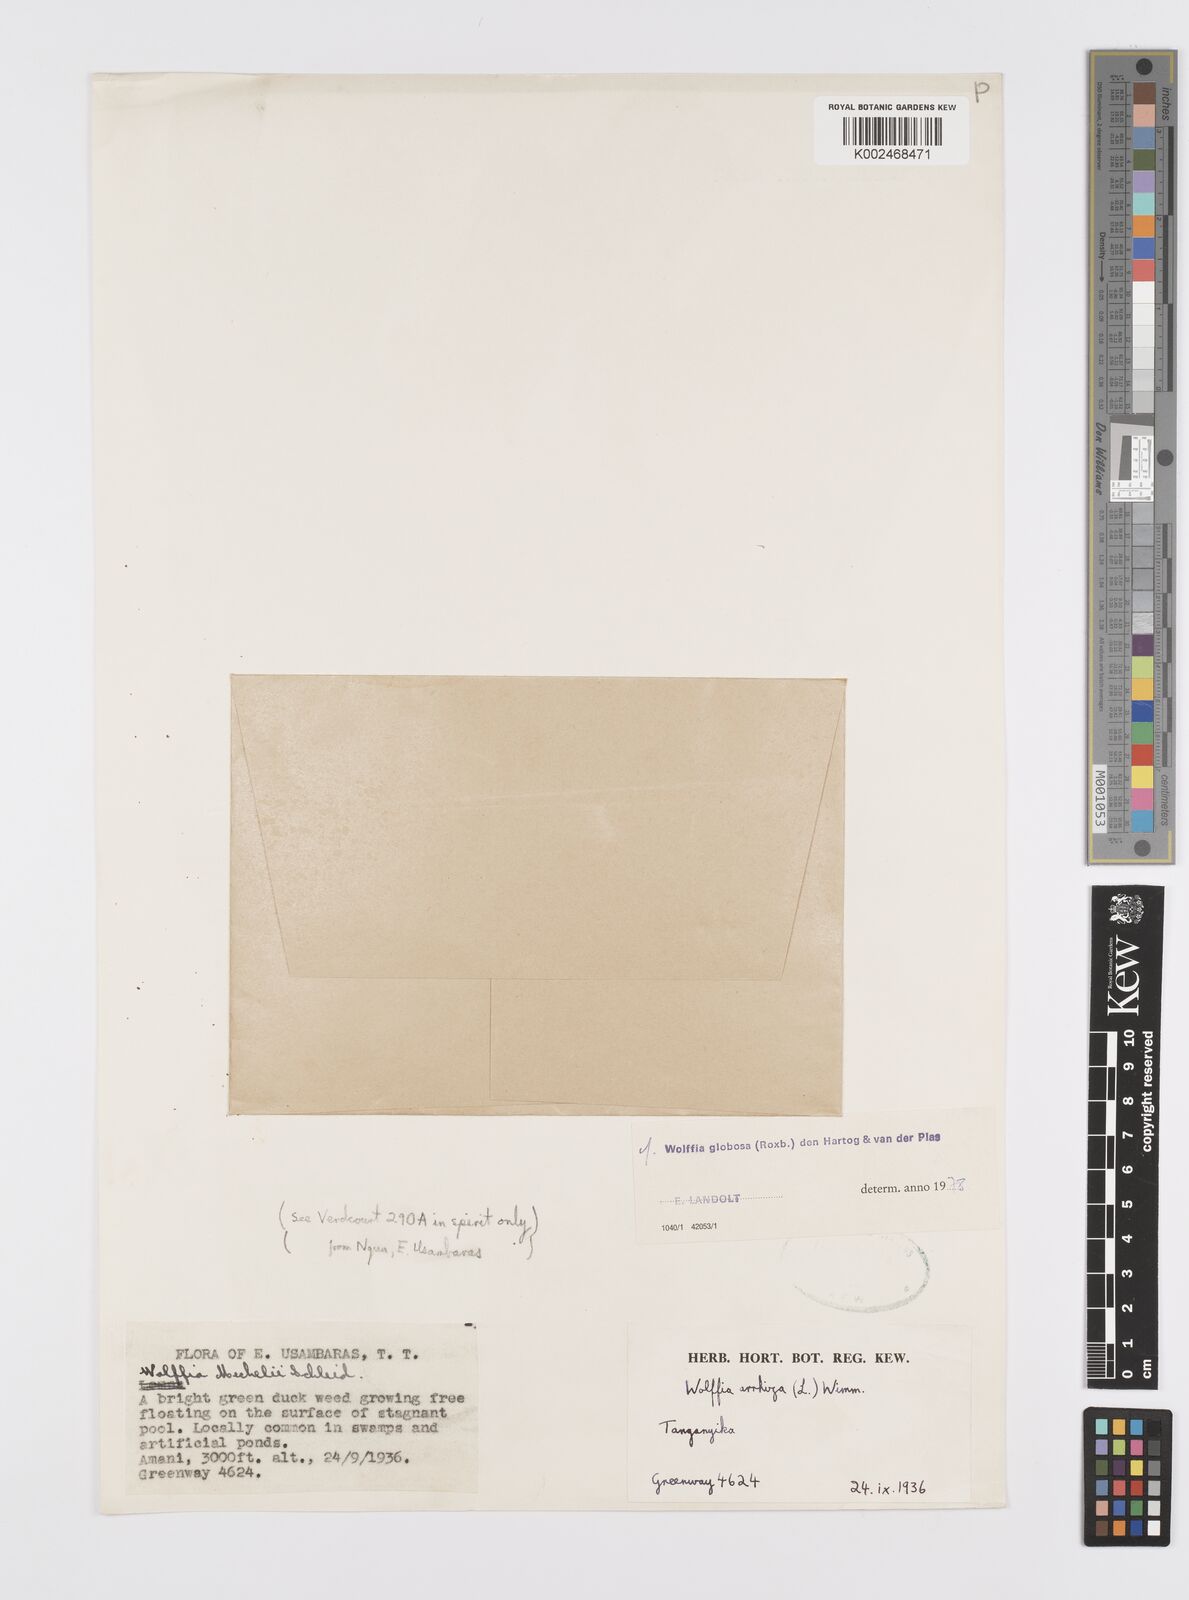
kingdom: Plantae
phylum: Tracheophyta
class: Liliopsida
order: Alismatales
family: Araceae
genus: Wolffia
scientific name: Wolffia globosa
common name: Asian watermeal
